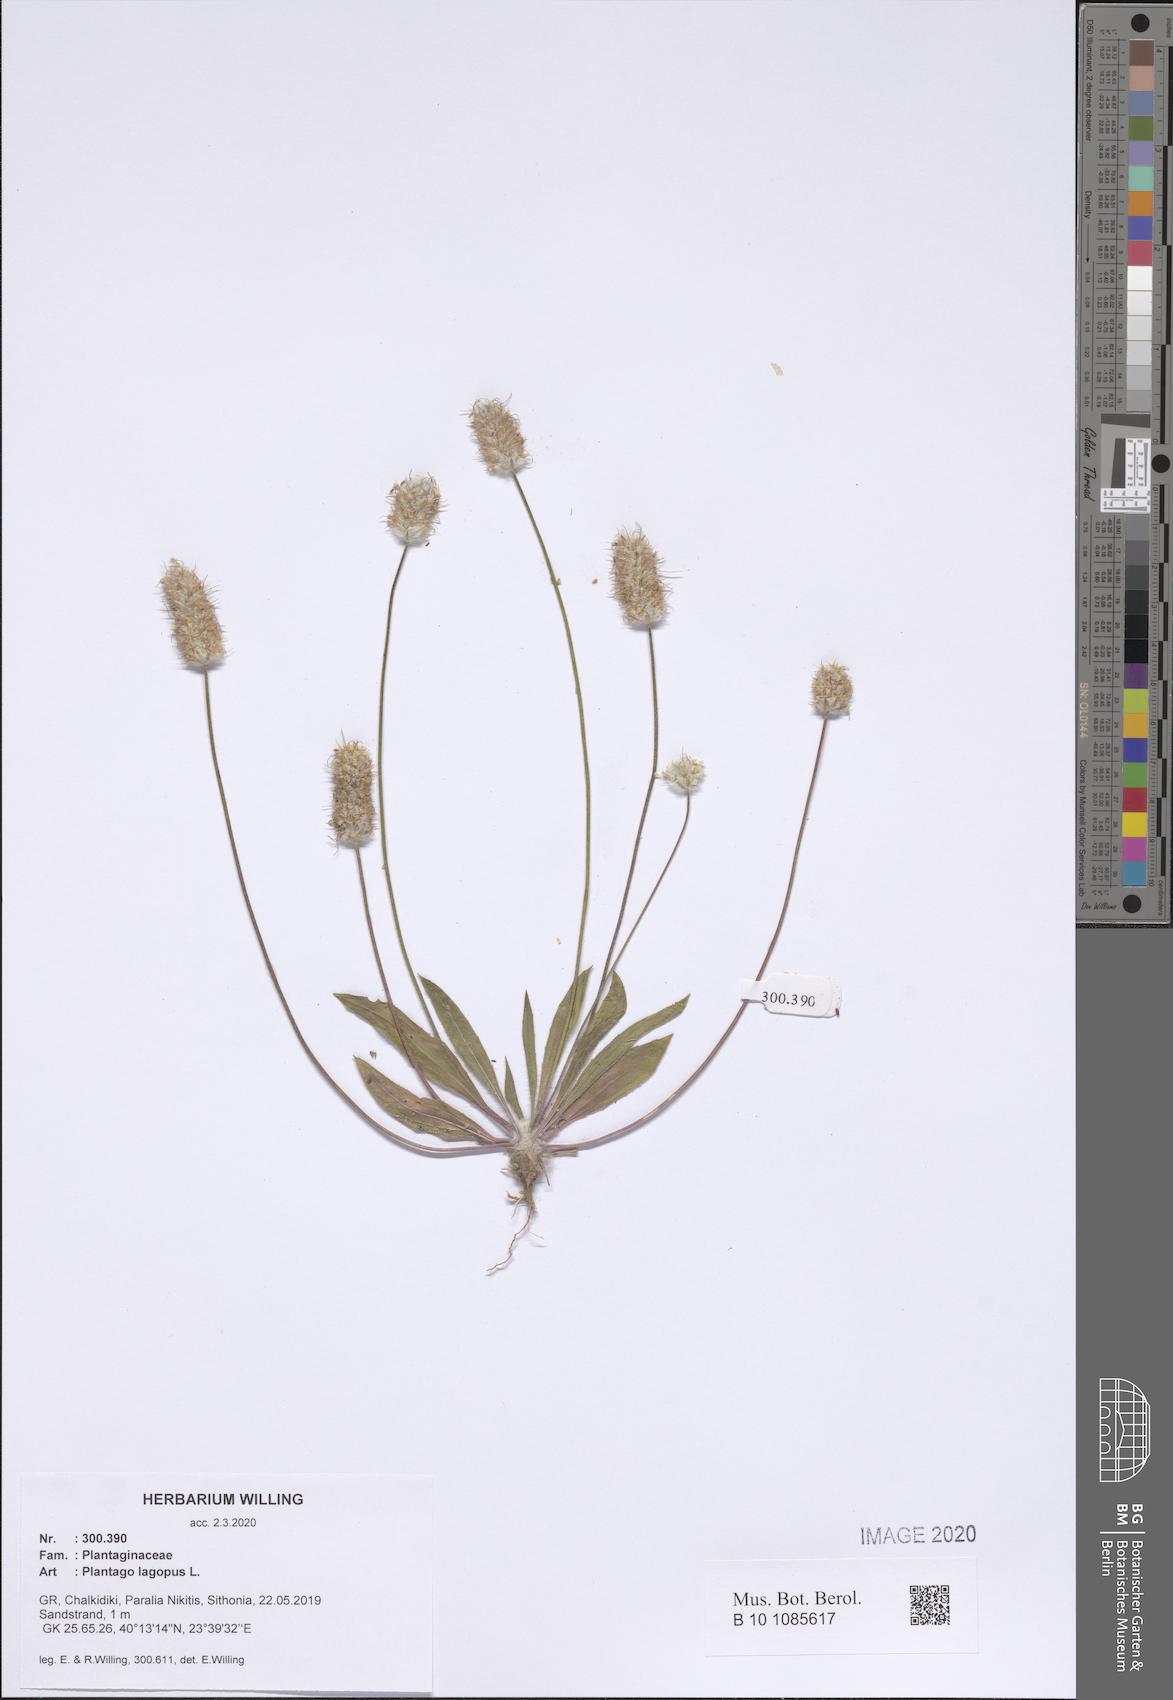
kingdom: Plantae
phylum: Tracheophyta
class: Magnoliopsida
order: Lamiales
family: Plantaginaceae
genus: Plantago
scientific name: Plantago lagopus
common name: Hare-foot plantain
